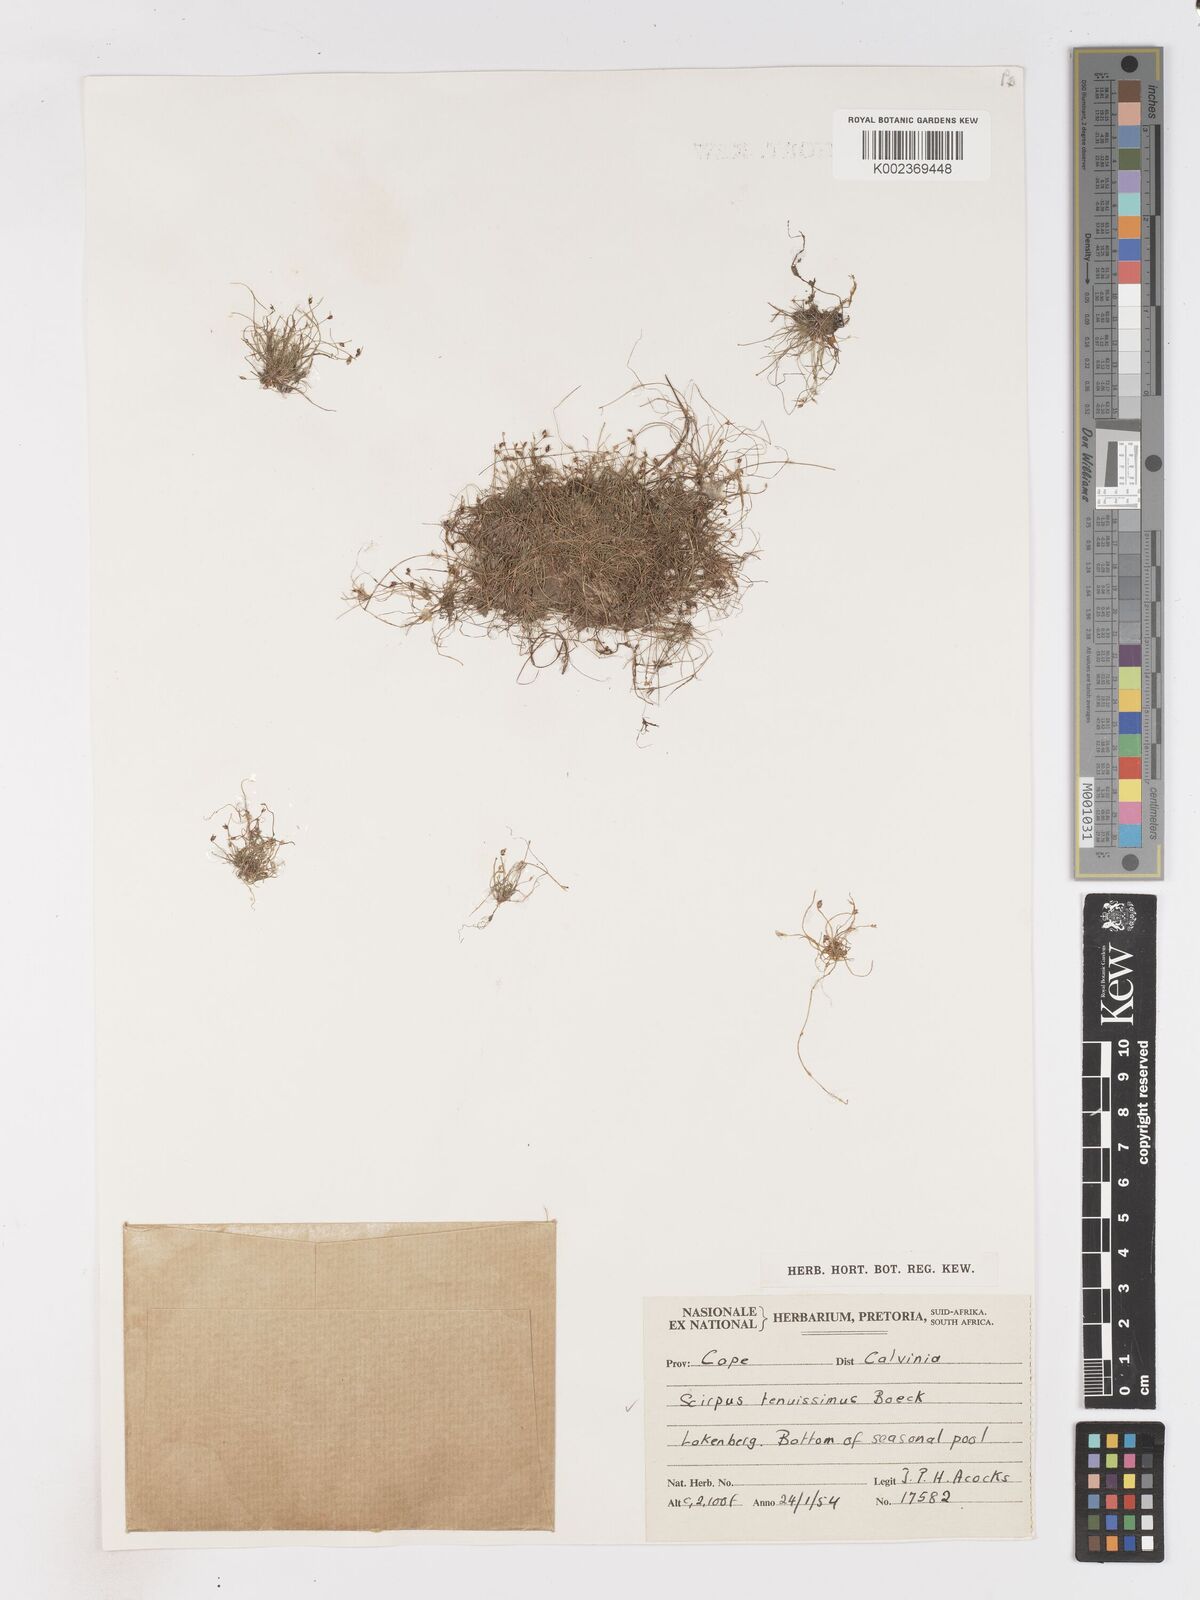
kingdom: Plantae
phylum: Tracheophyta
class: Liliopsida
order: Poales
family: Cyperaceae
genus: Isolepis
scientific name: Isolepis tenuissima
